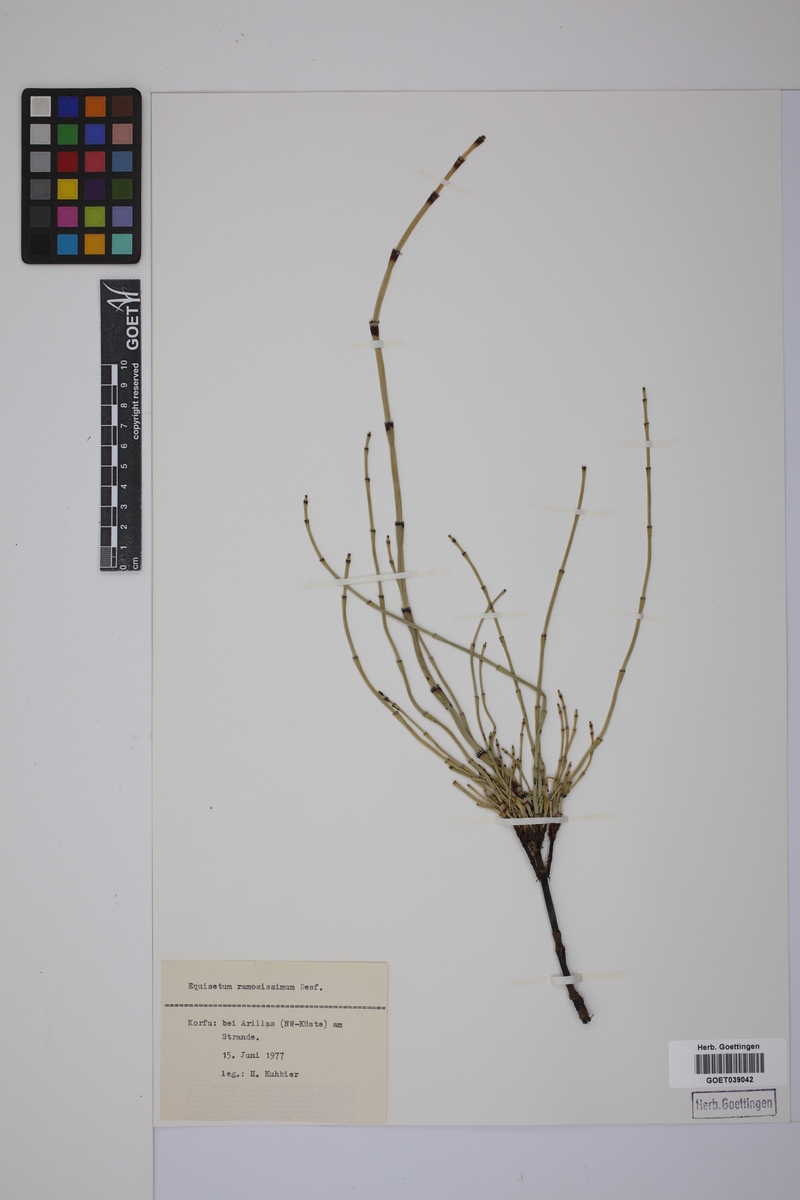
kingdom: Plantae
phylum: Tracheophyta
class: Polypodiopsida
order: Equisetales
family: Equisetaceae
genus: Equisetum
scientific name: Equisetum giganteum
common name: Giant horsetail
